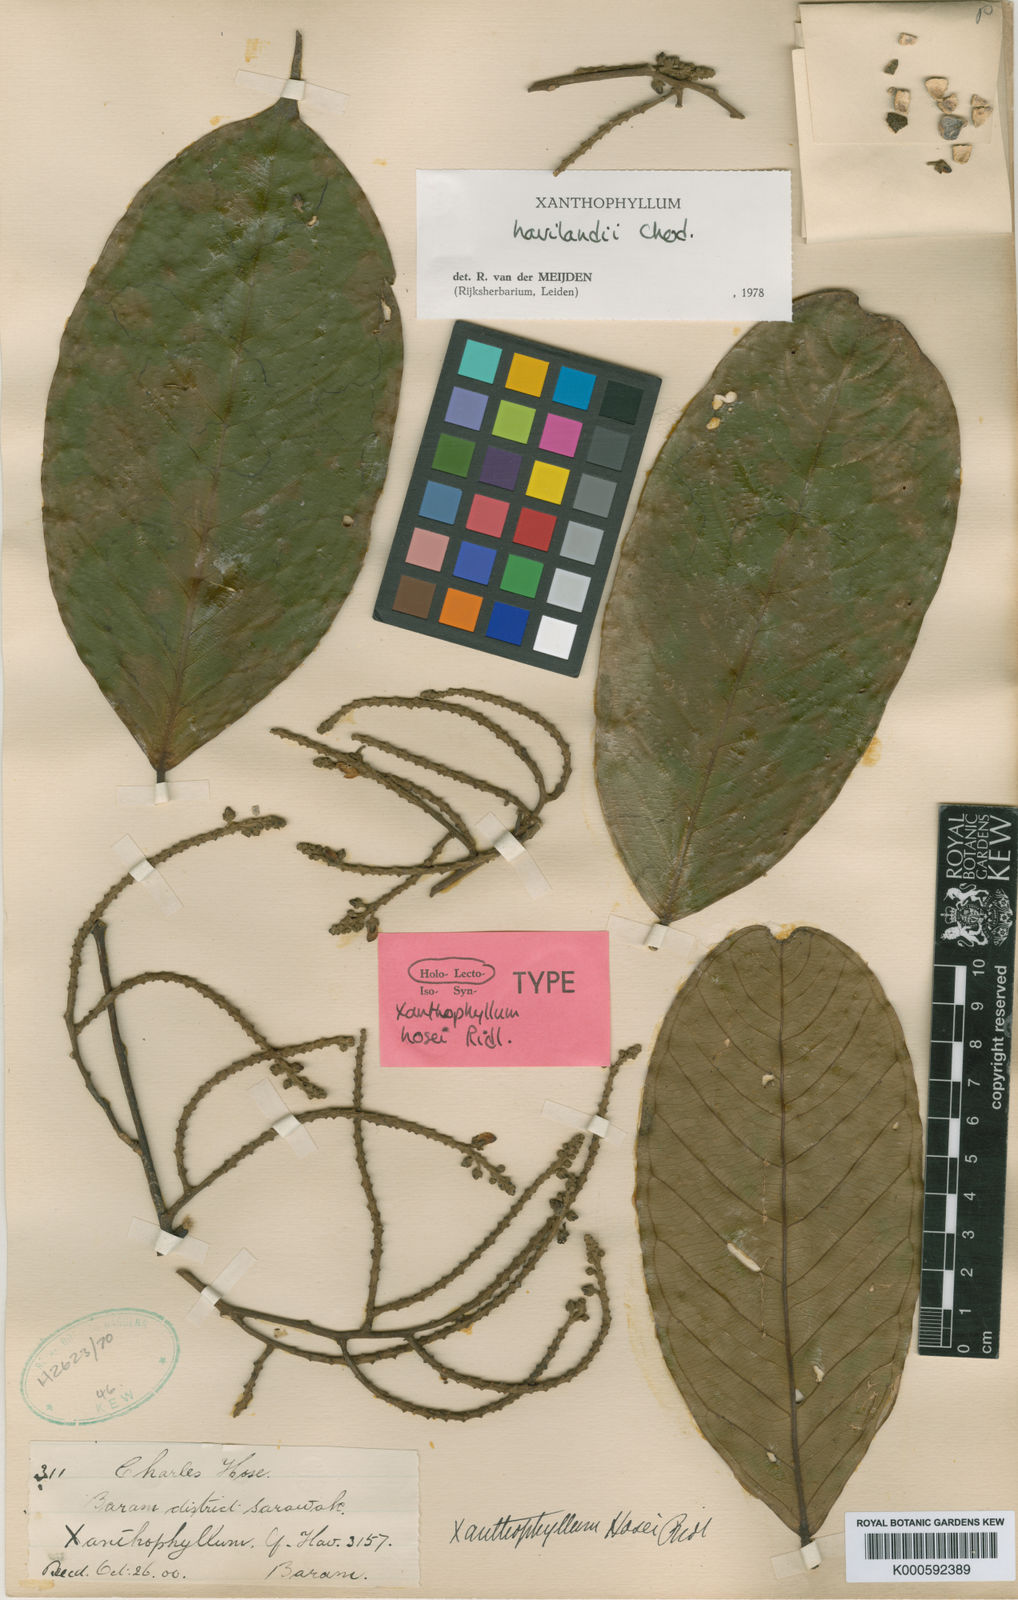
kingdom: Plantae
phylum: Tracheophyta
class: Magnoliopsida
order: Fabales
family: Polygalaceae
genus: Xanthophyllum
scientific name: Xanthophyllum havilandii
